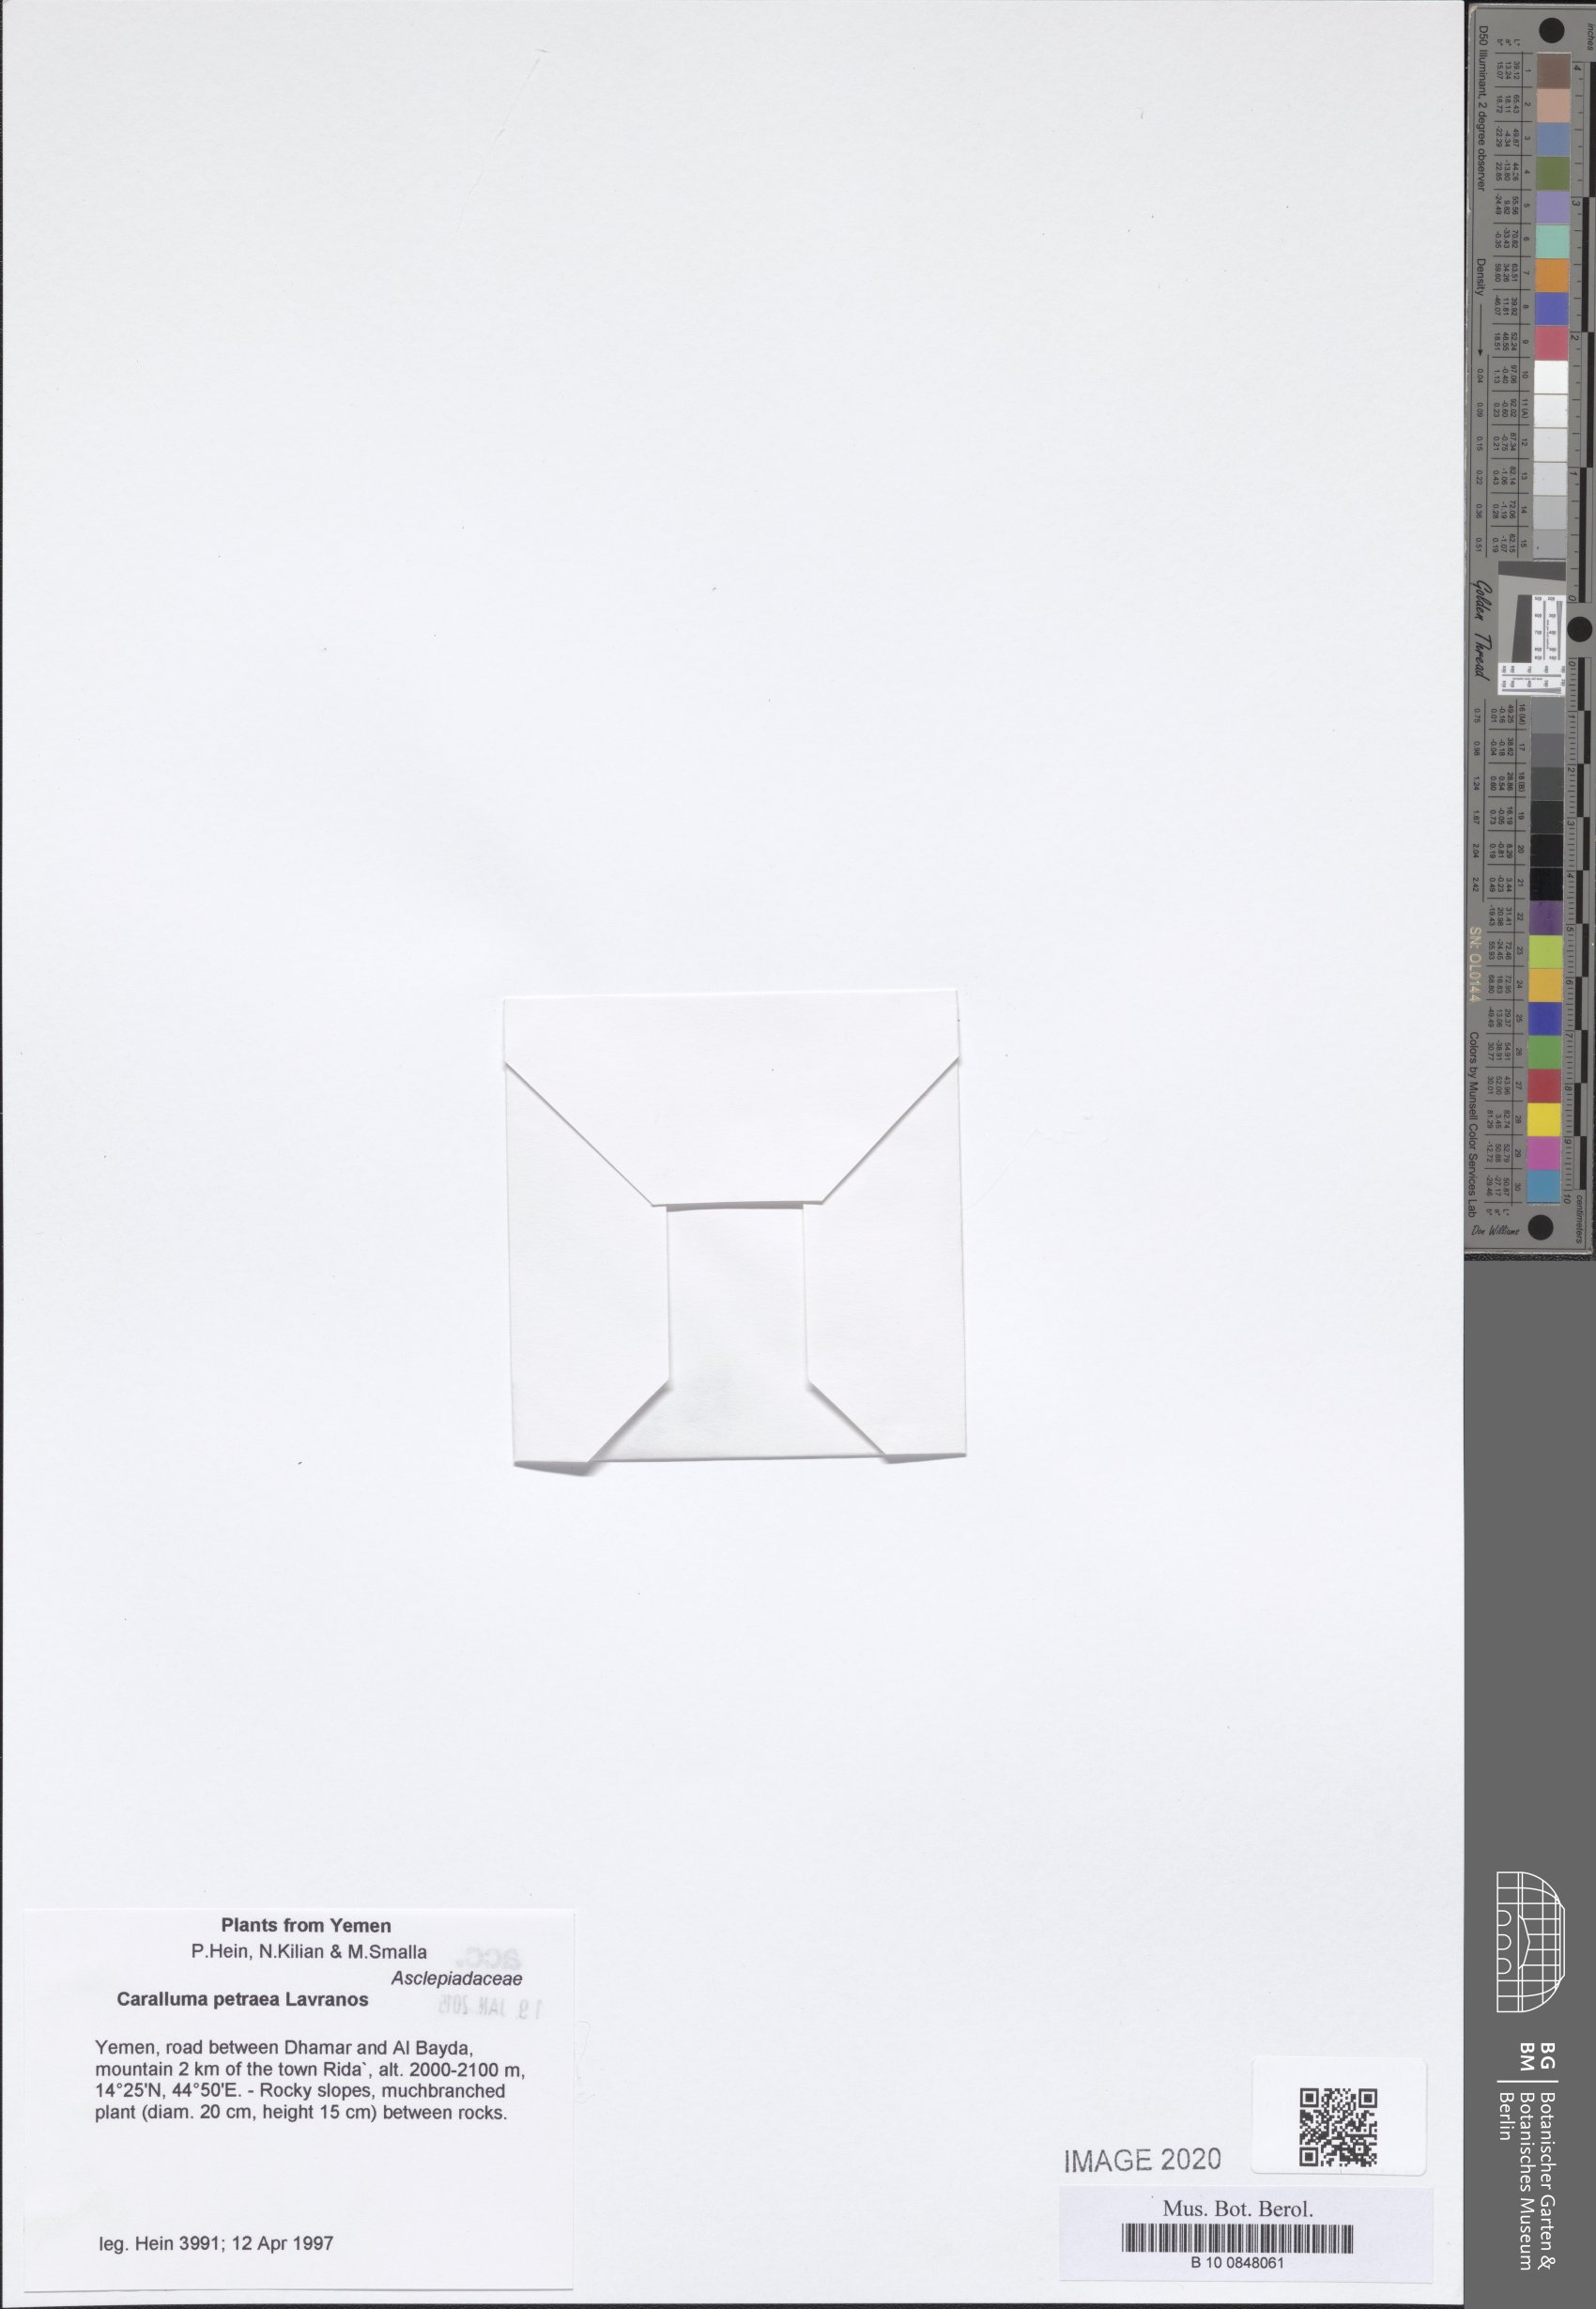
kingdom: Plantae
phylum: Tracheophyta
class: Magnoliopsida
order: Gentianales
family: Apocynaceae
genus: Ceropegia
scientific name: Ceropegia petraea
